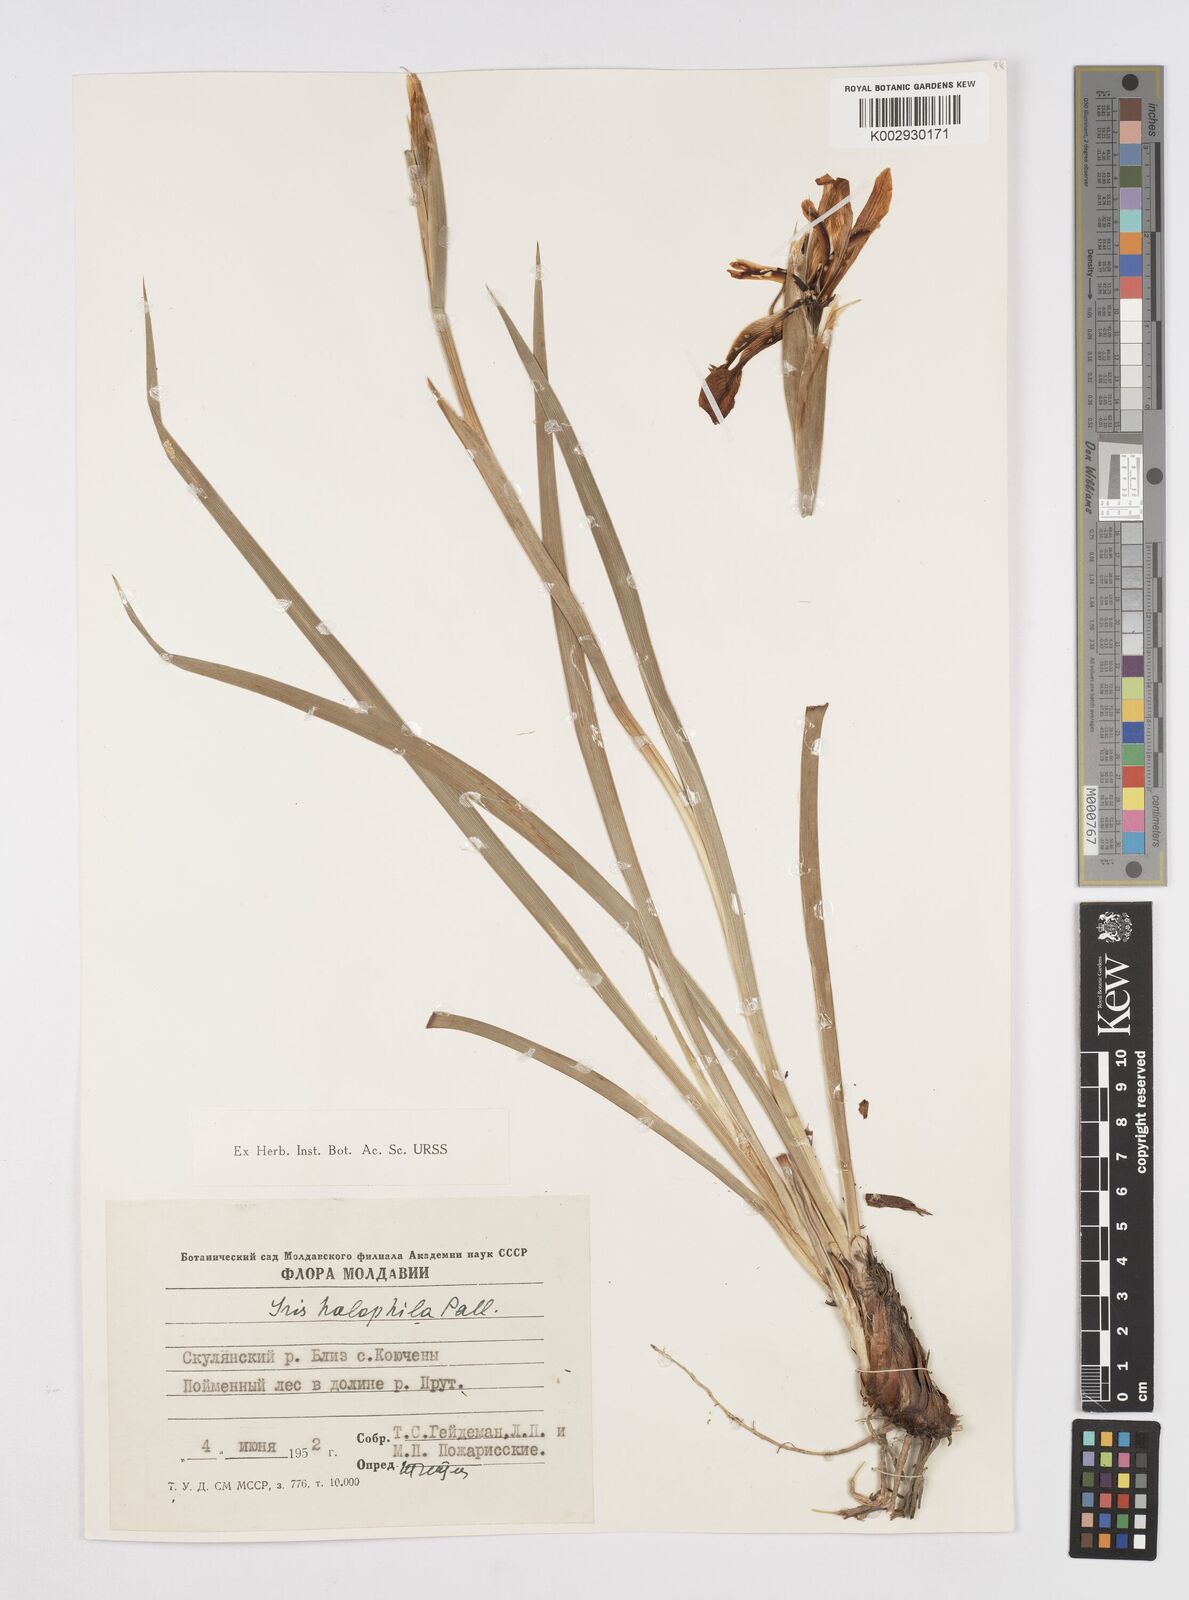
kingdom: Plantae
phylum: Tracheophyta
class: Liliopsida
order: Asparagales
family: Iridaceae
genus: Iris
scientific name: Iris halophila
